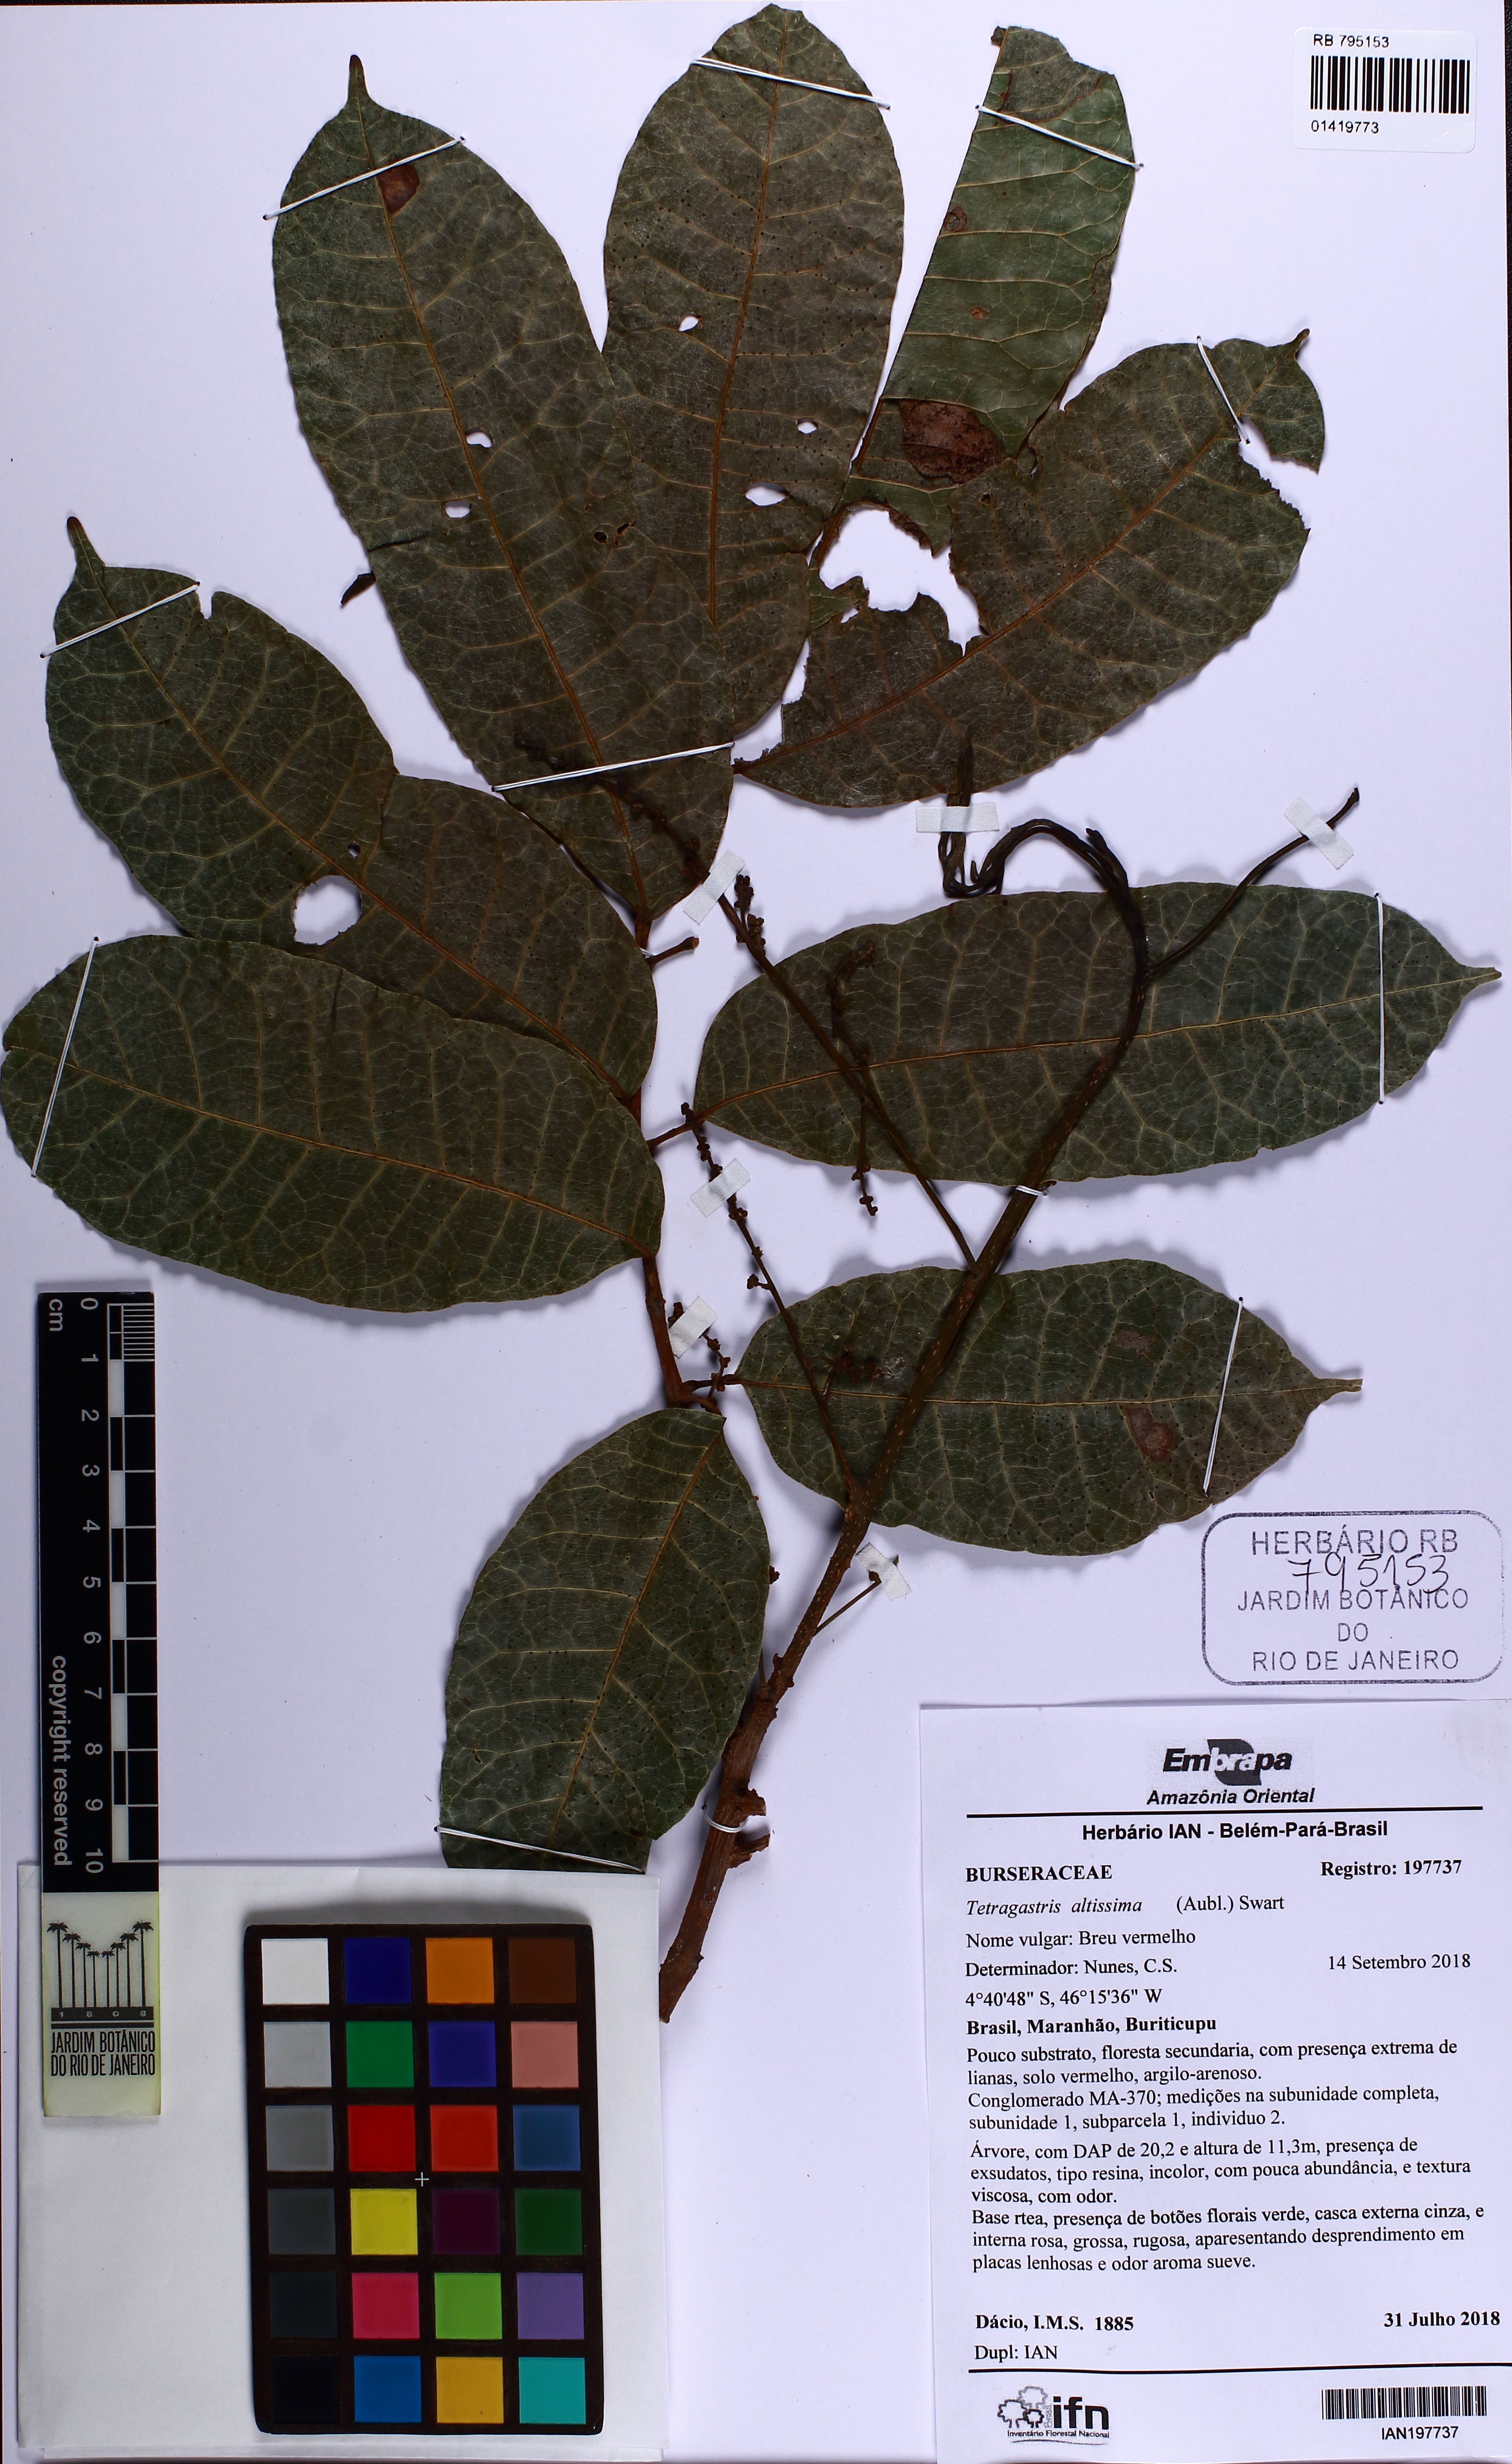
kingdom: Plantae
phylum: Tracheophyta
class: Magnoliopsida
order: Sapindales
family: Burseraceae
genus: Protium
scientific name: Protium tenuifolium
